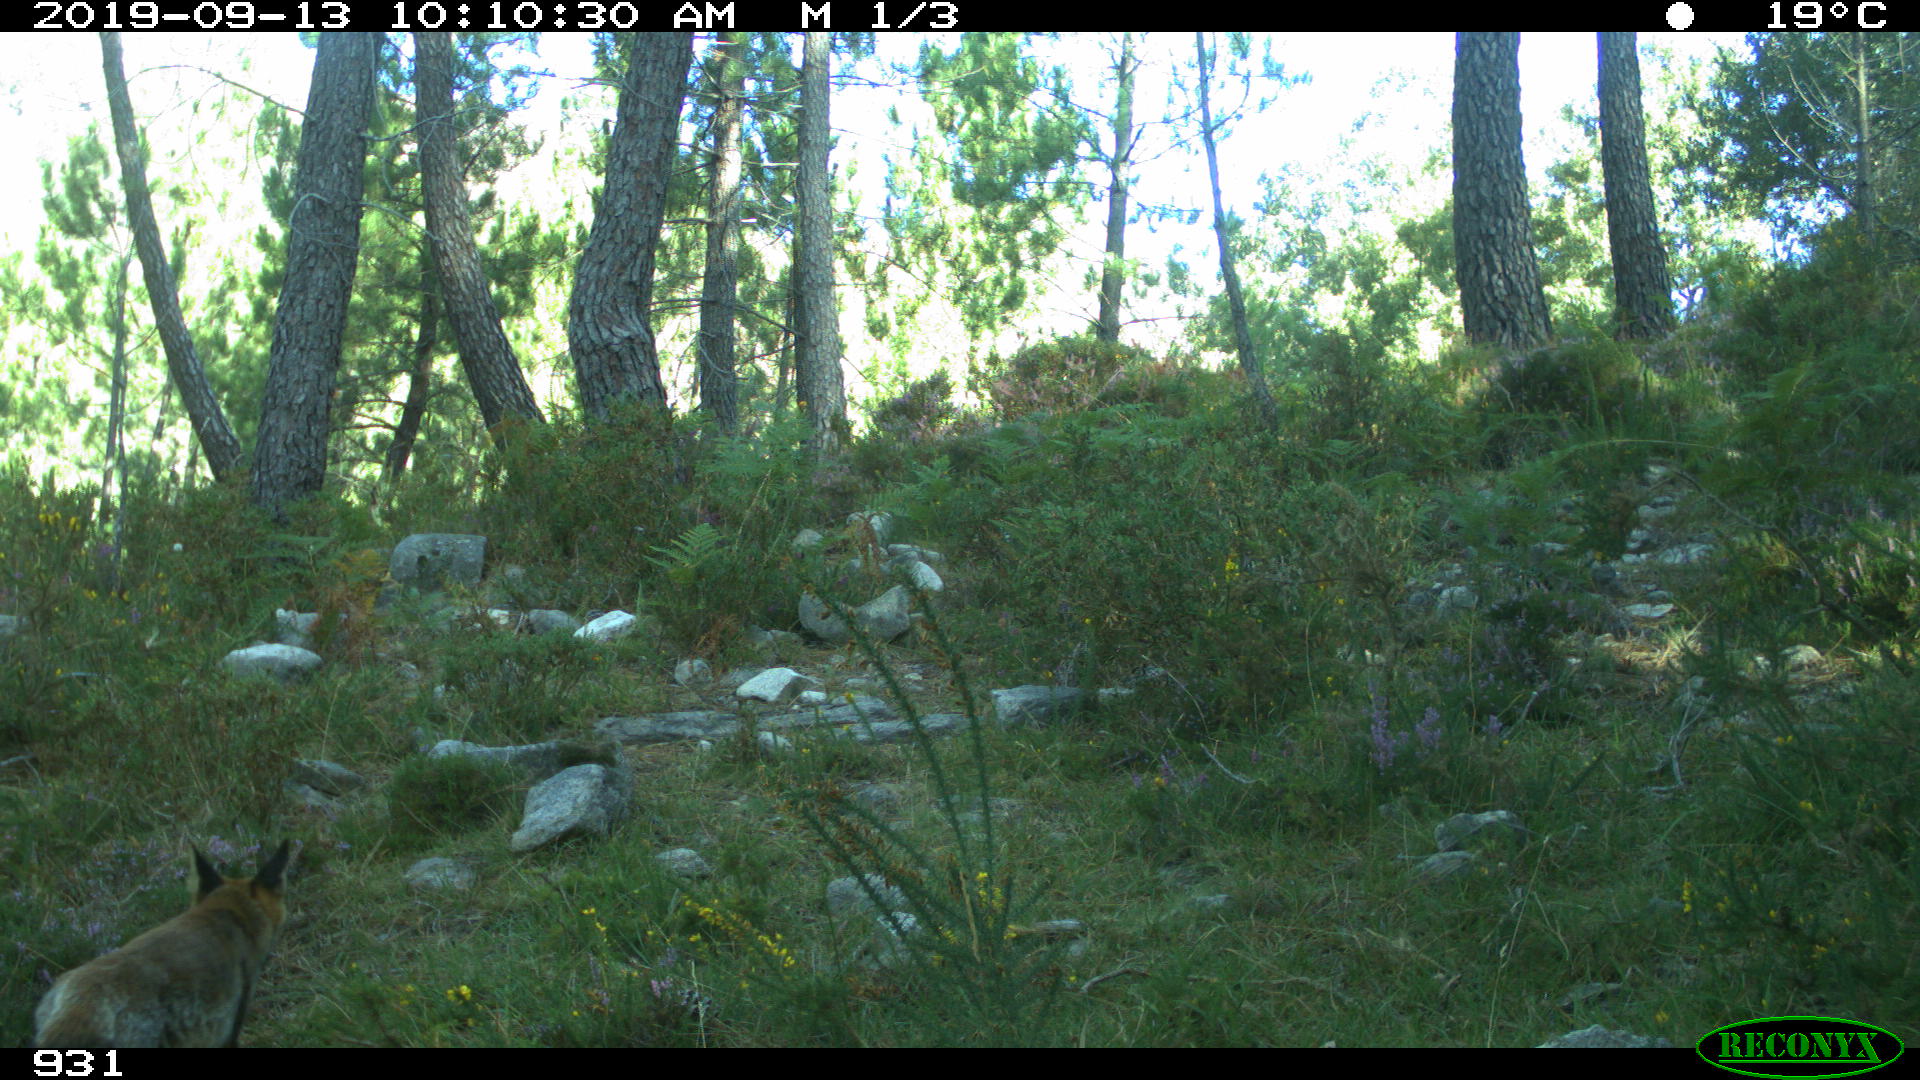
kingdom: Animalia
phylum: Chordata
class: Mammalia
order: Carnivora
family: Canidae
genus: Vulpes
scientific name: Vulpes vulpes
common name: Red fox
